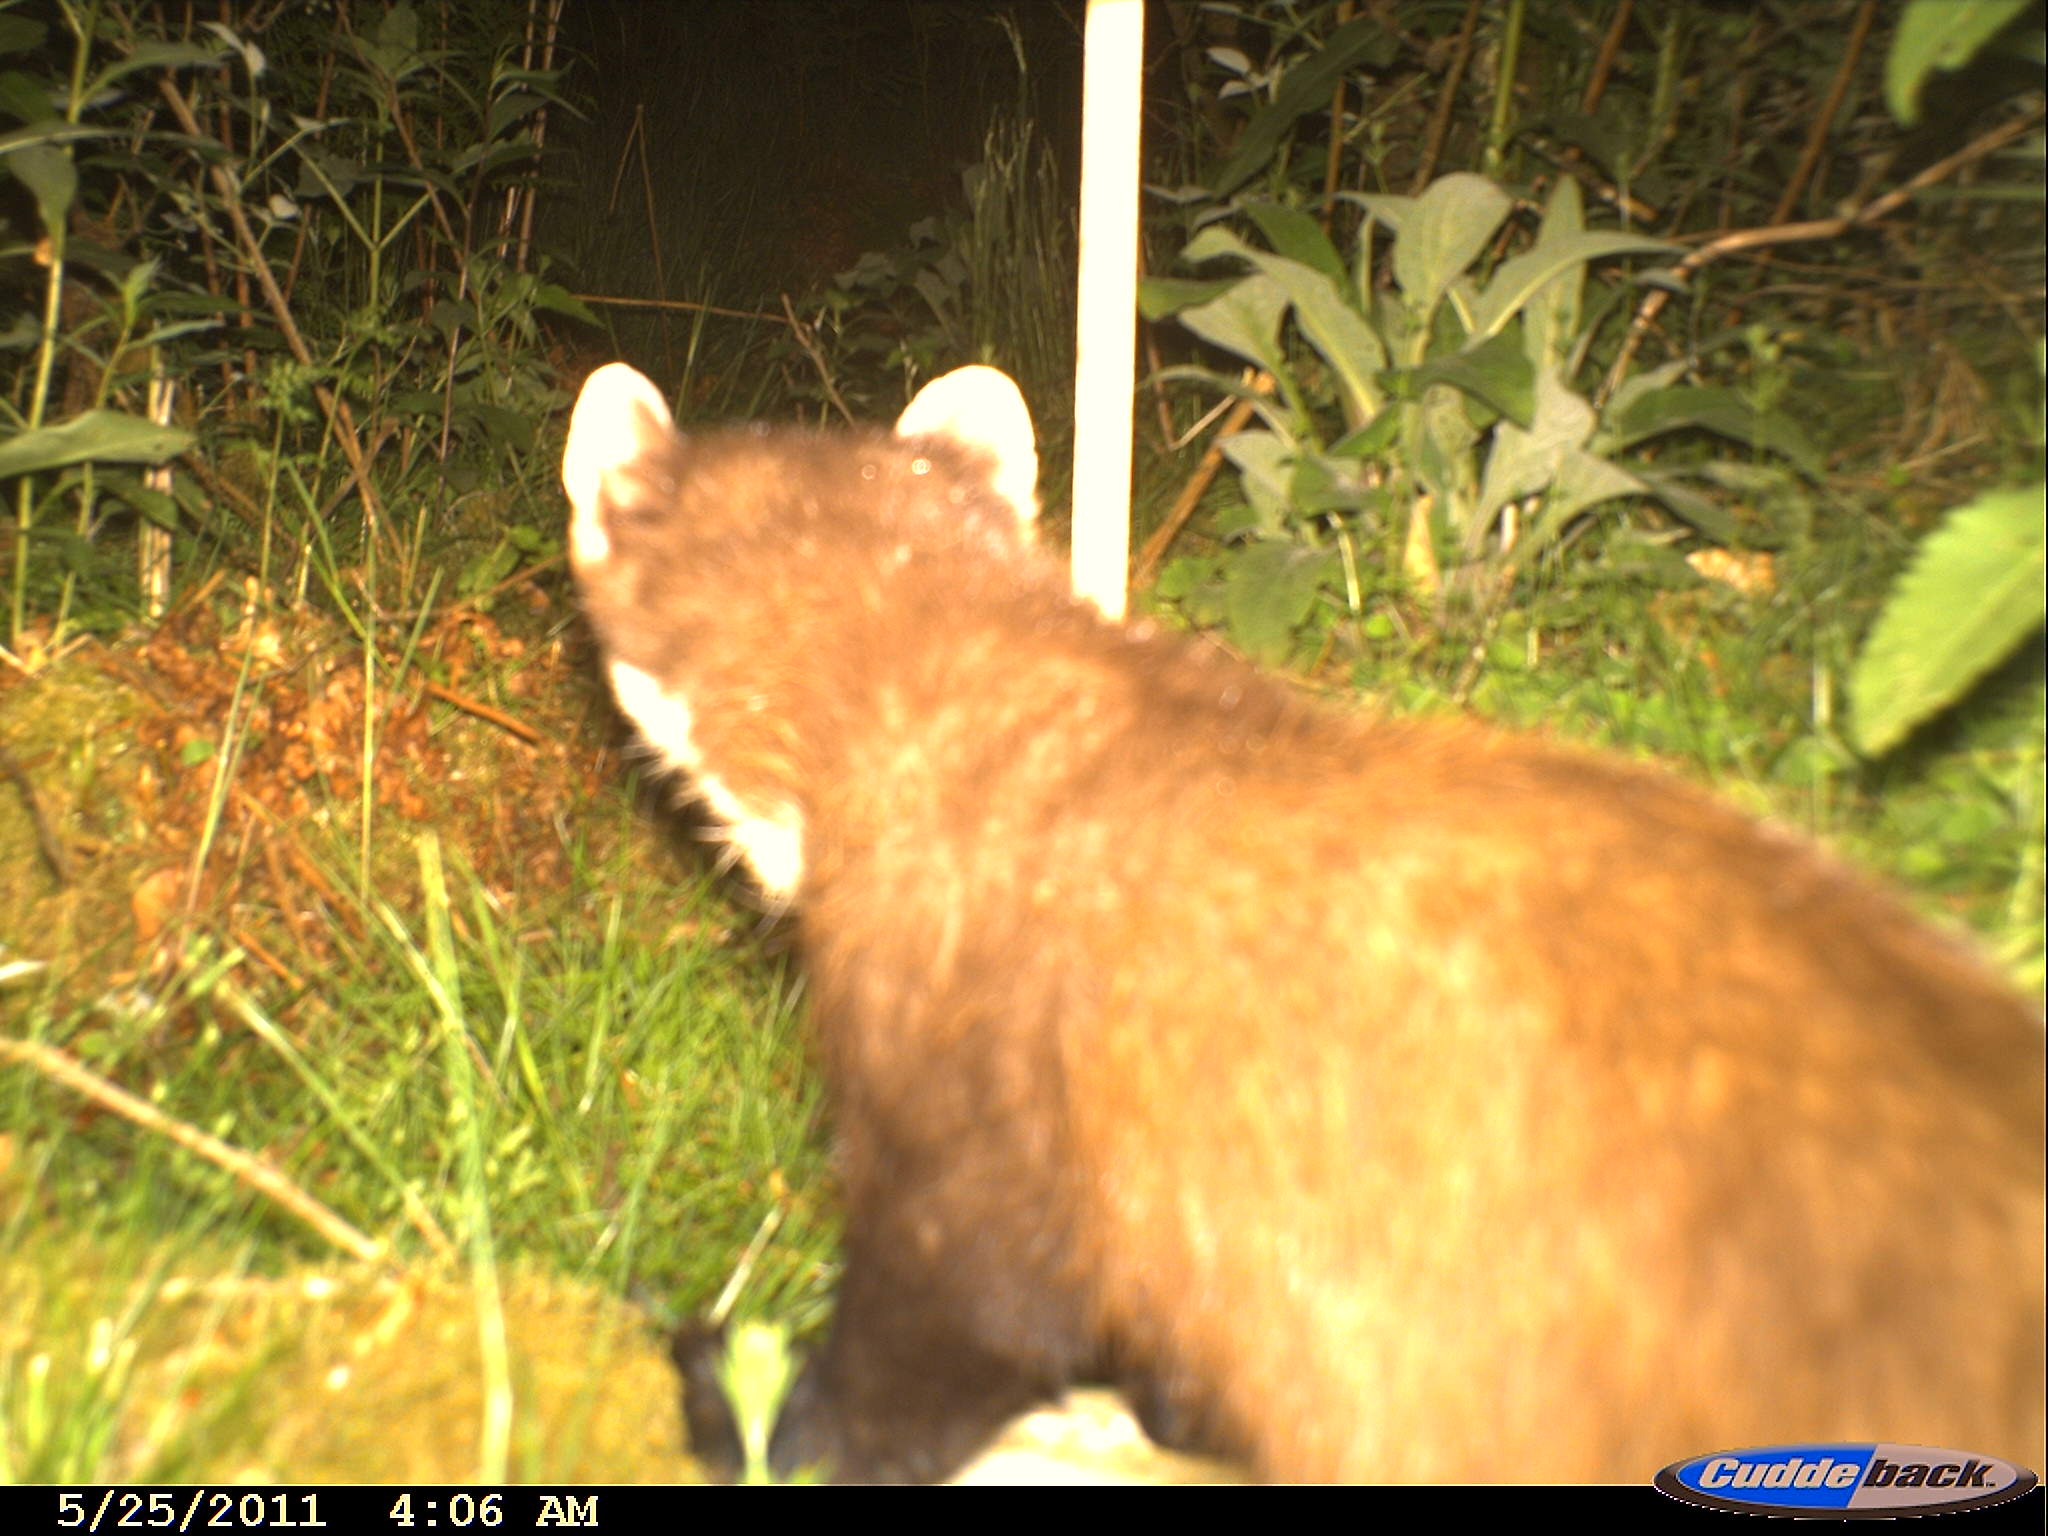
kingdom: Animalia
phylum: Chordata
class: Mammalia
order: Carnivora
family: Mustelidae
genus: Martes
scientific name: Martes martes
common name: European pine marten
